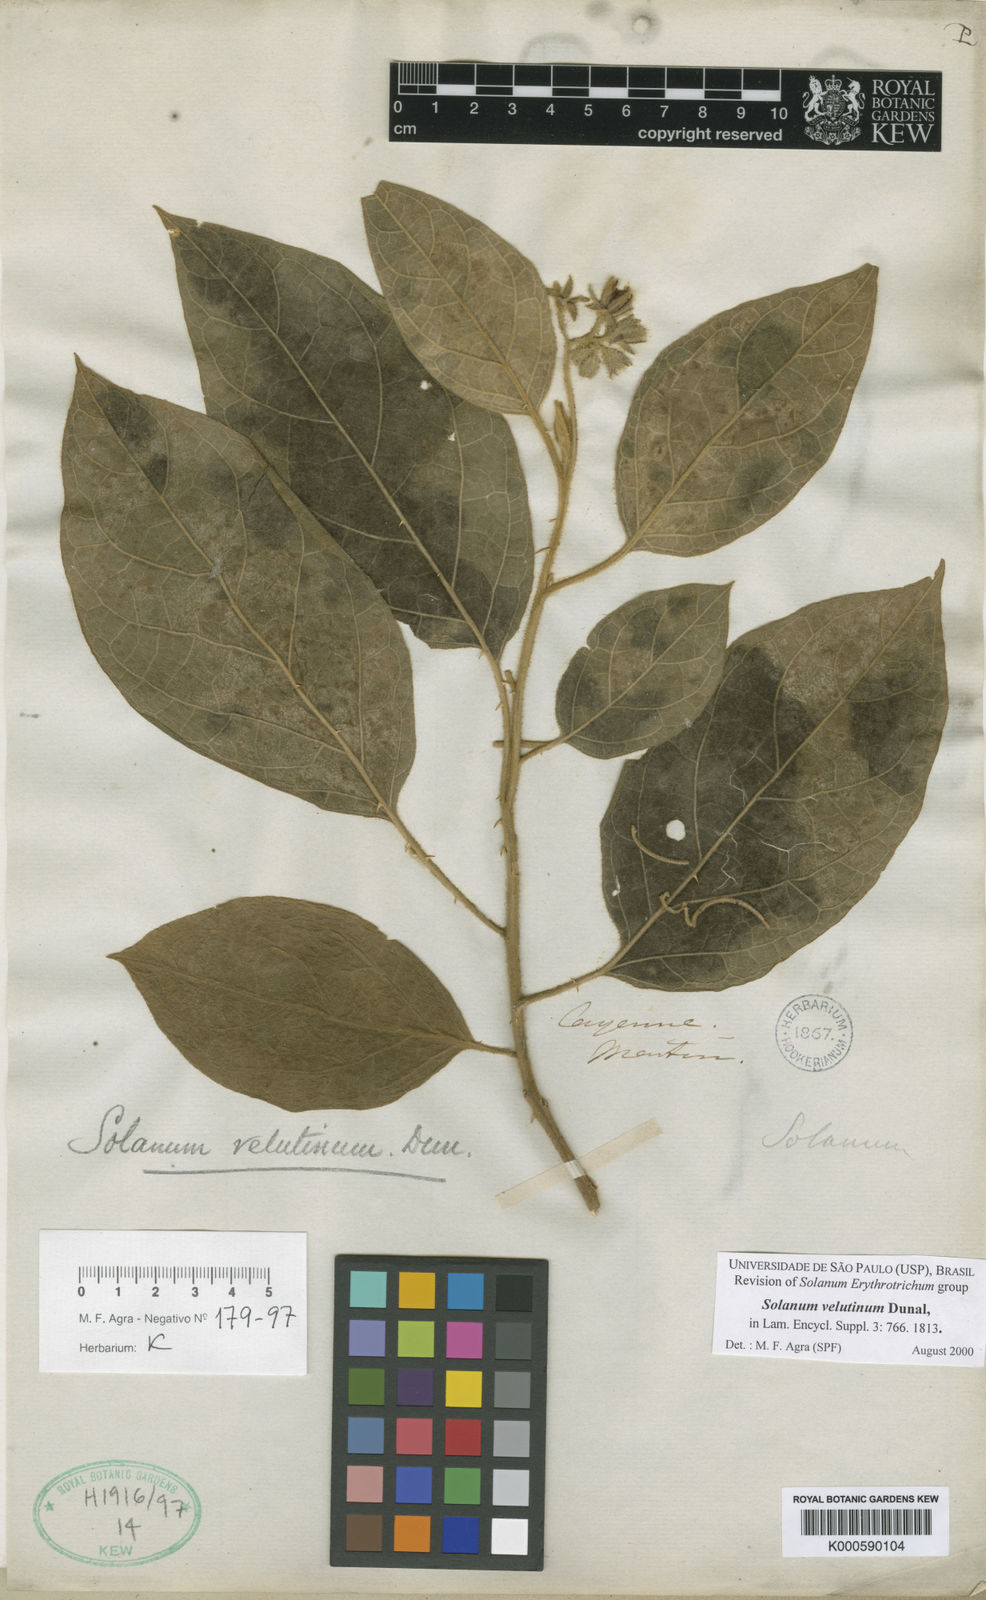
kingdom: Plantae
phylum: Tracheophyta
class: Magnoliopsida
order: Solanales
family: Solanaceae
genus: Solanum
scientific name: Solanum velutinum
